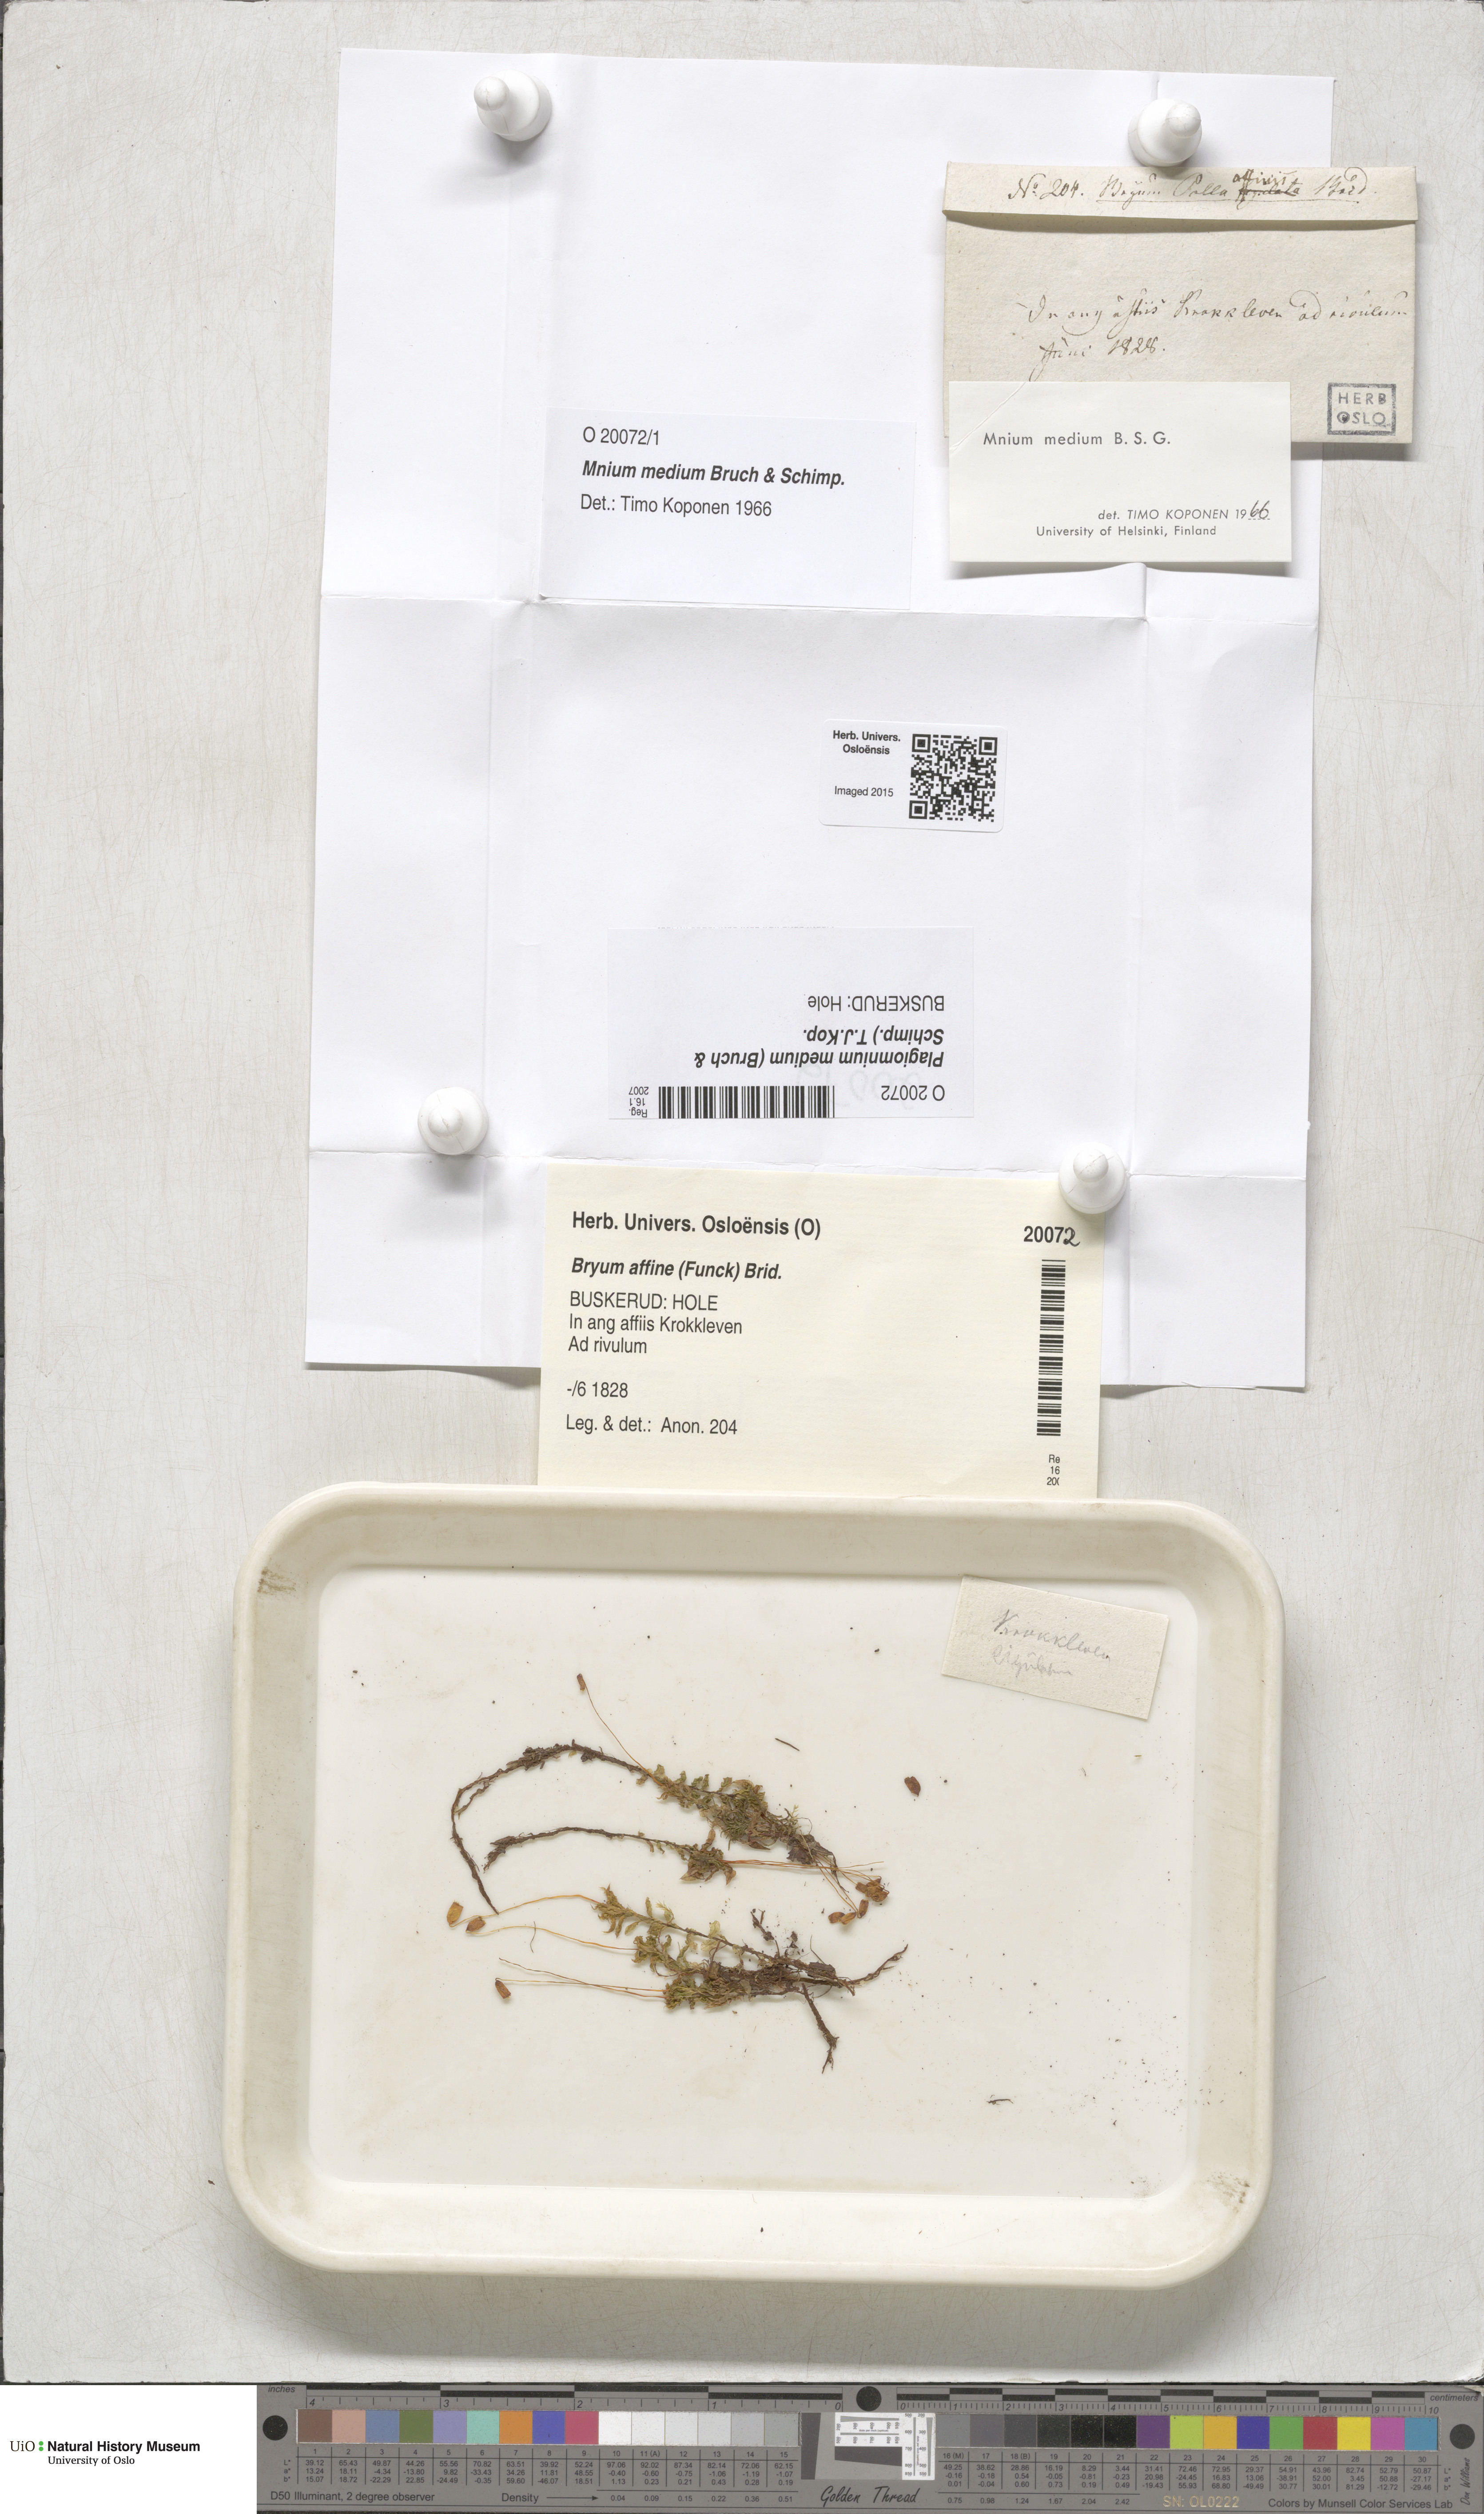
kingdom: Plantae
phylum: Bryophyta
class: Bryopsida
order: Bryales
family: Mniaceae
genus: Plagiomnium
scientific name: Plagiomnium medium
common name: Alpine leafy moss
